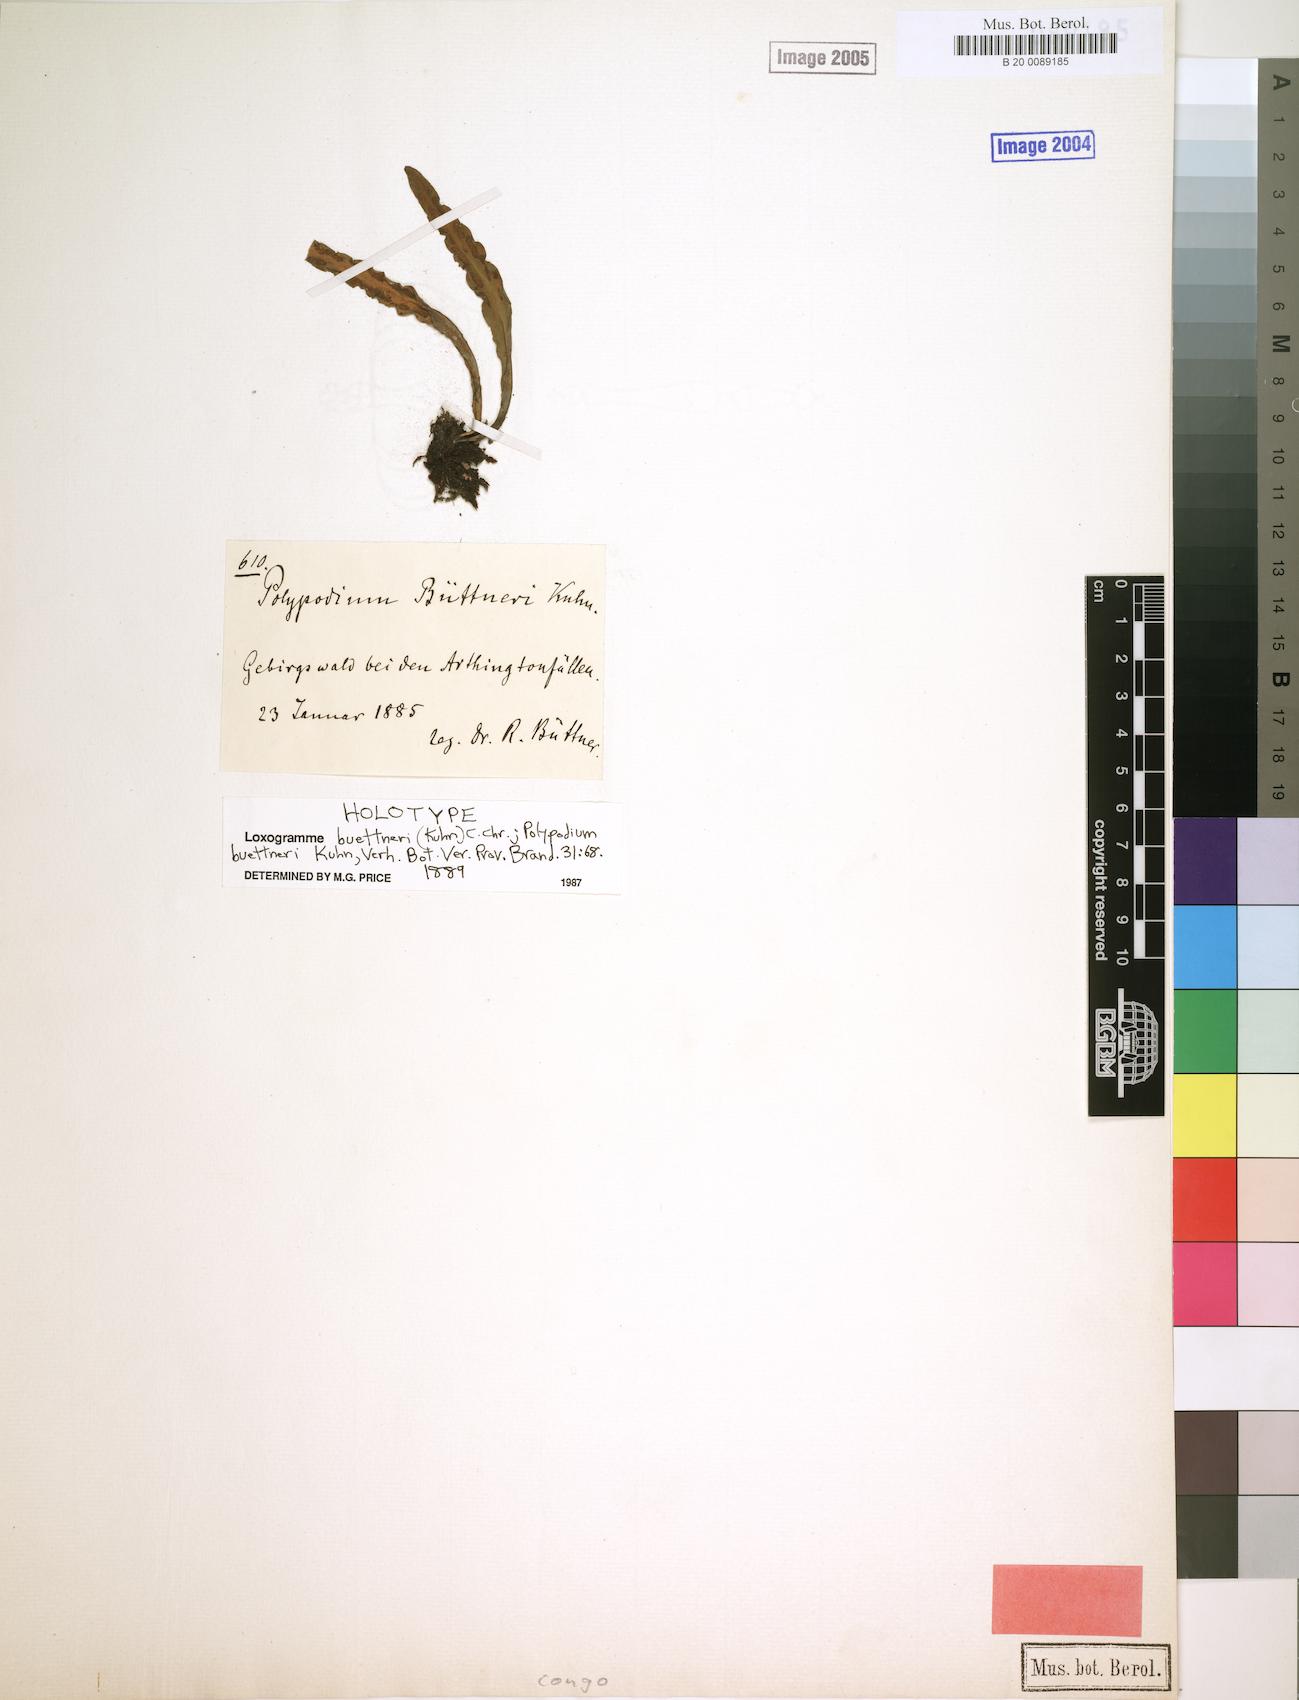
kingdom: Plantae
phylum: Tracheophyta
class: Polypodiopsida
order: Polypodiales
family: Polypodiaceae
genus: Loxogramme
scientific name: Loxogramme buettneri
